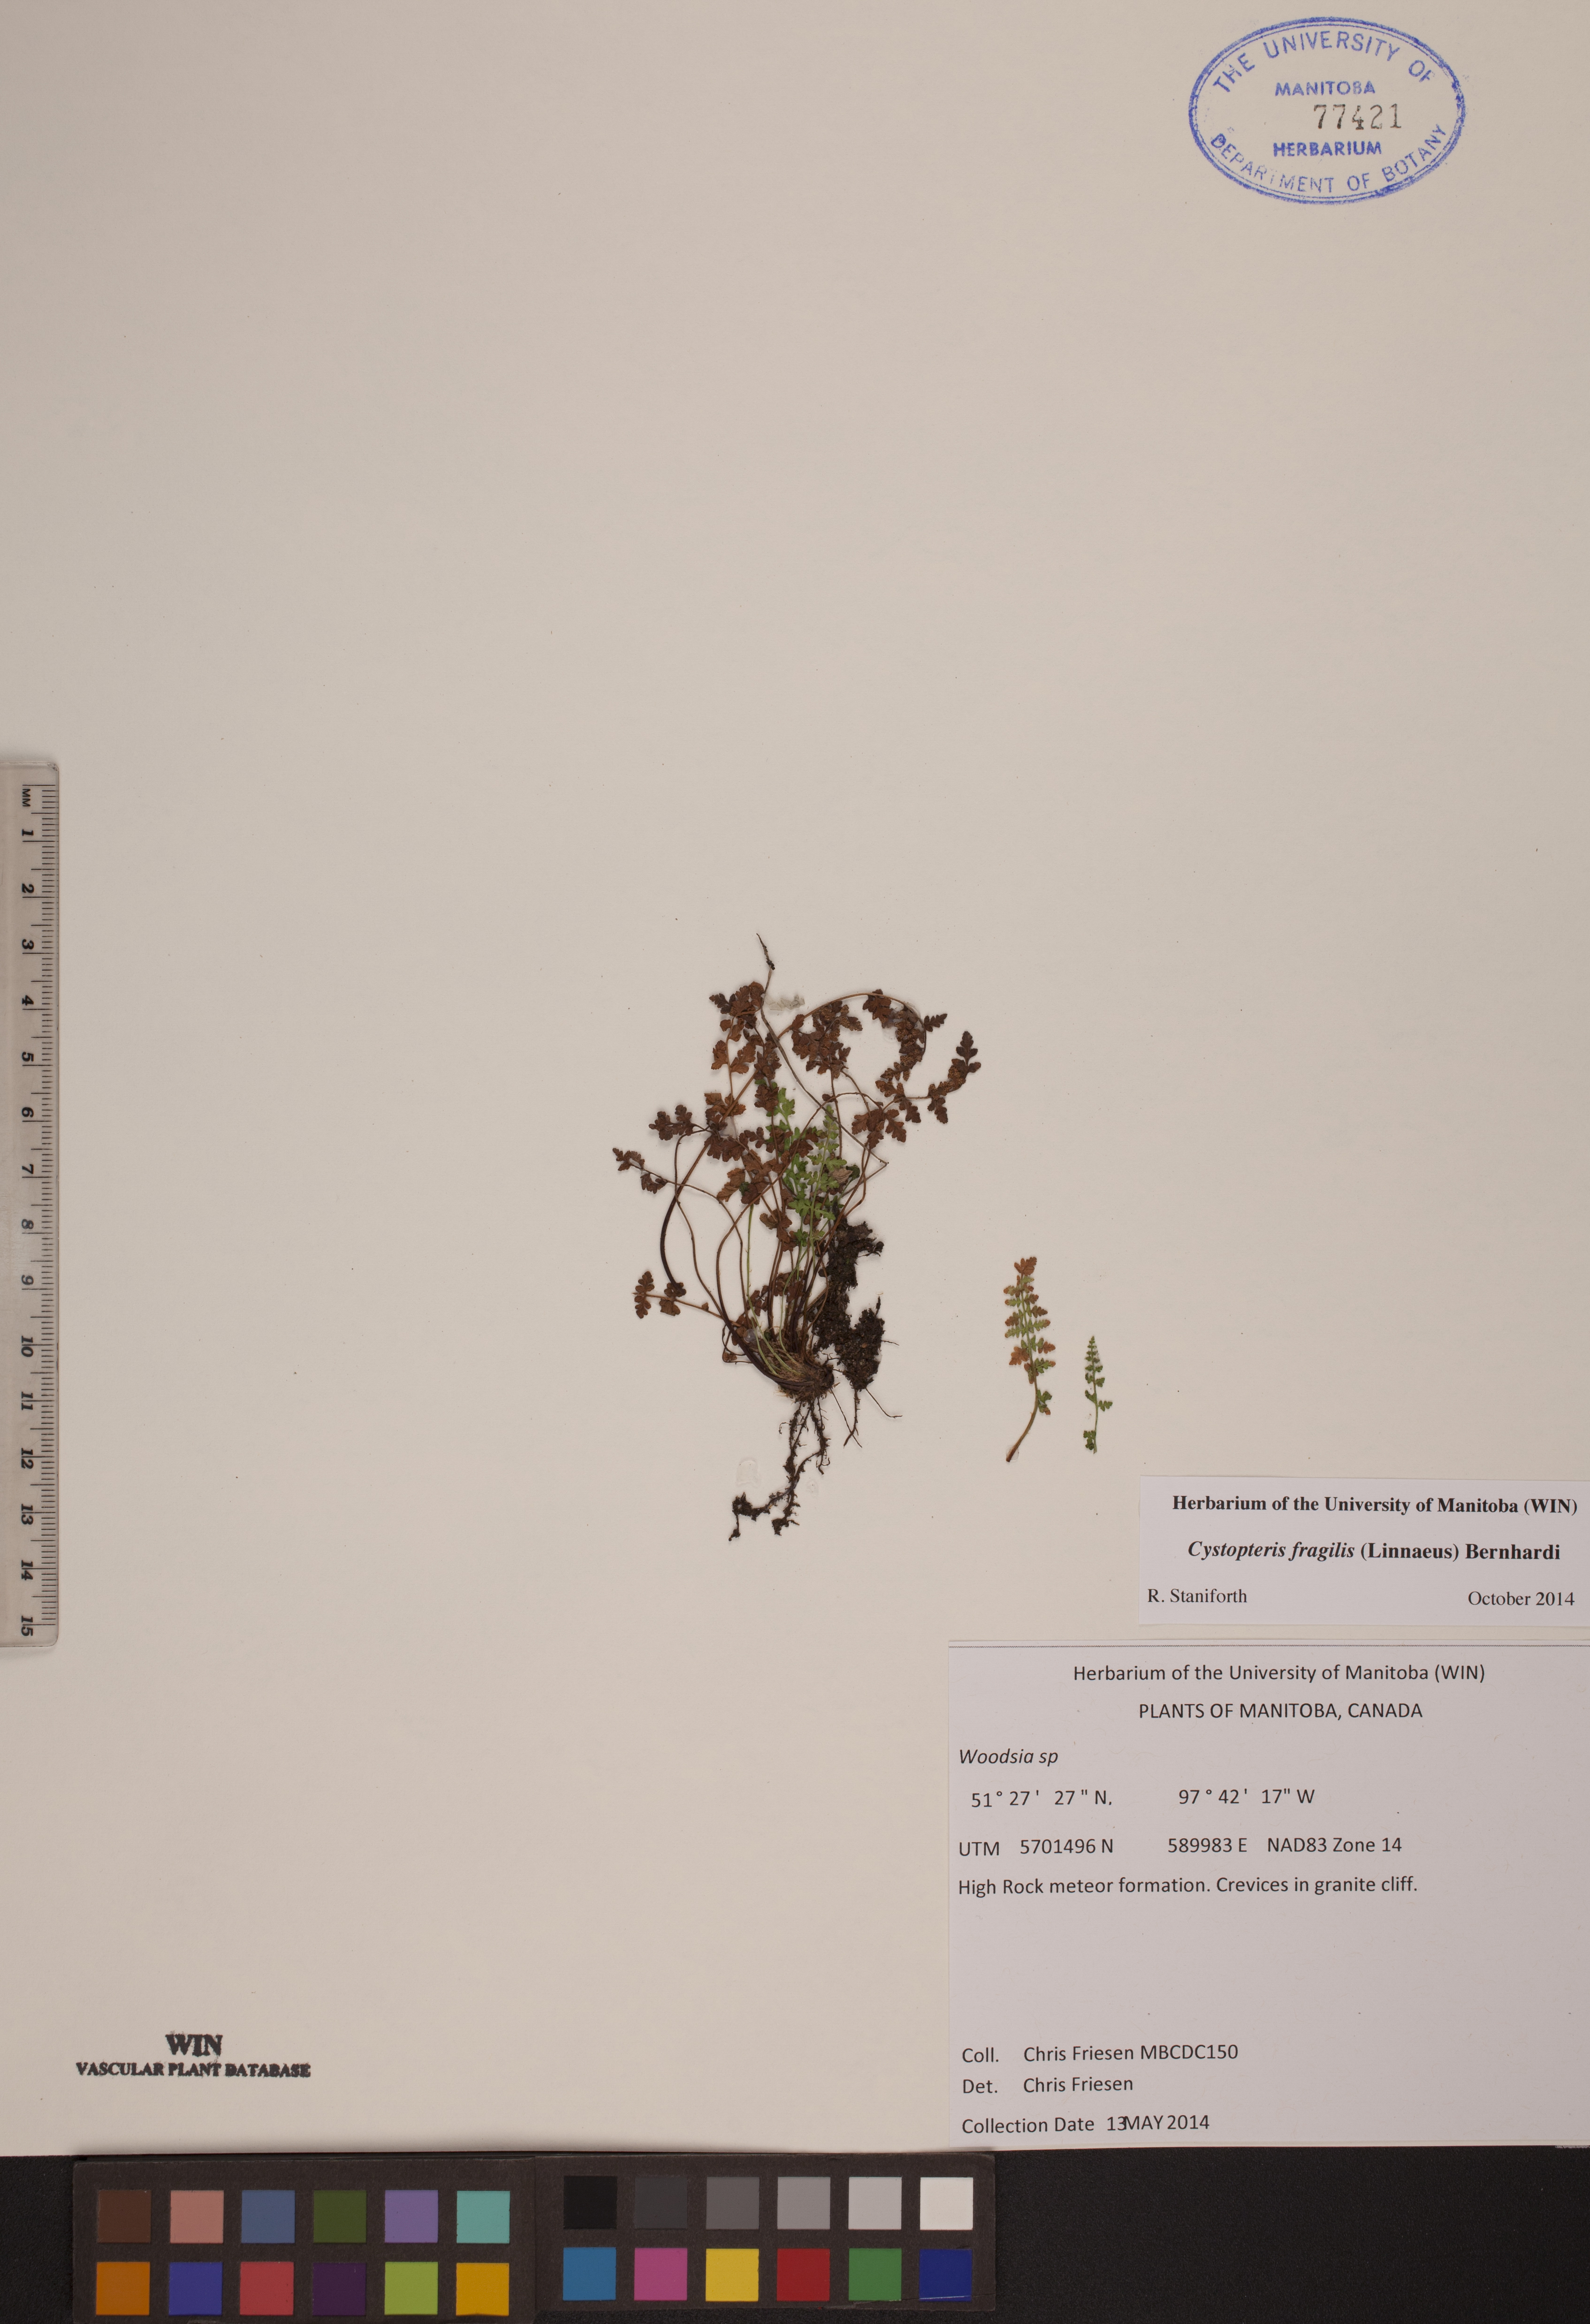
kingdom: Plantae
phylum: Tracheophyta
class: Polypodiopsida
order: Polypodiales
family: Cystopteridaceae
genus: Cystopteris
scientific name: Cystopteris fragilis
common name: Brittle bladder fern
